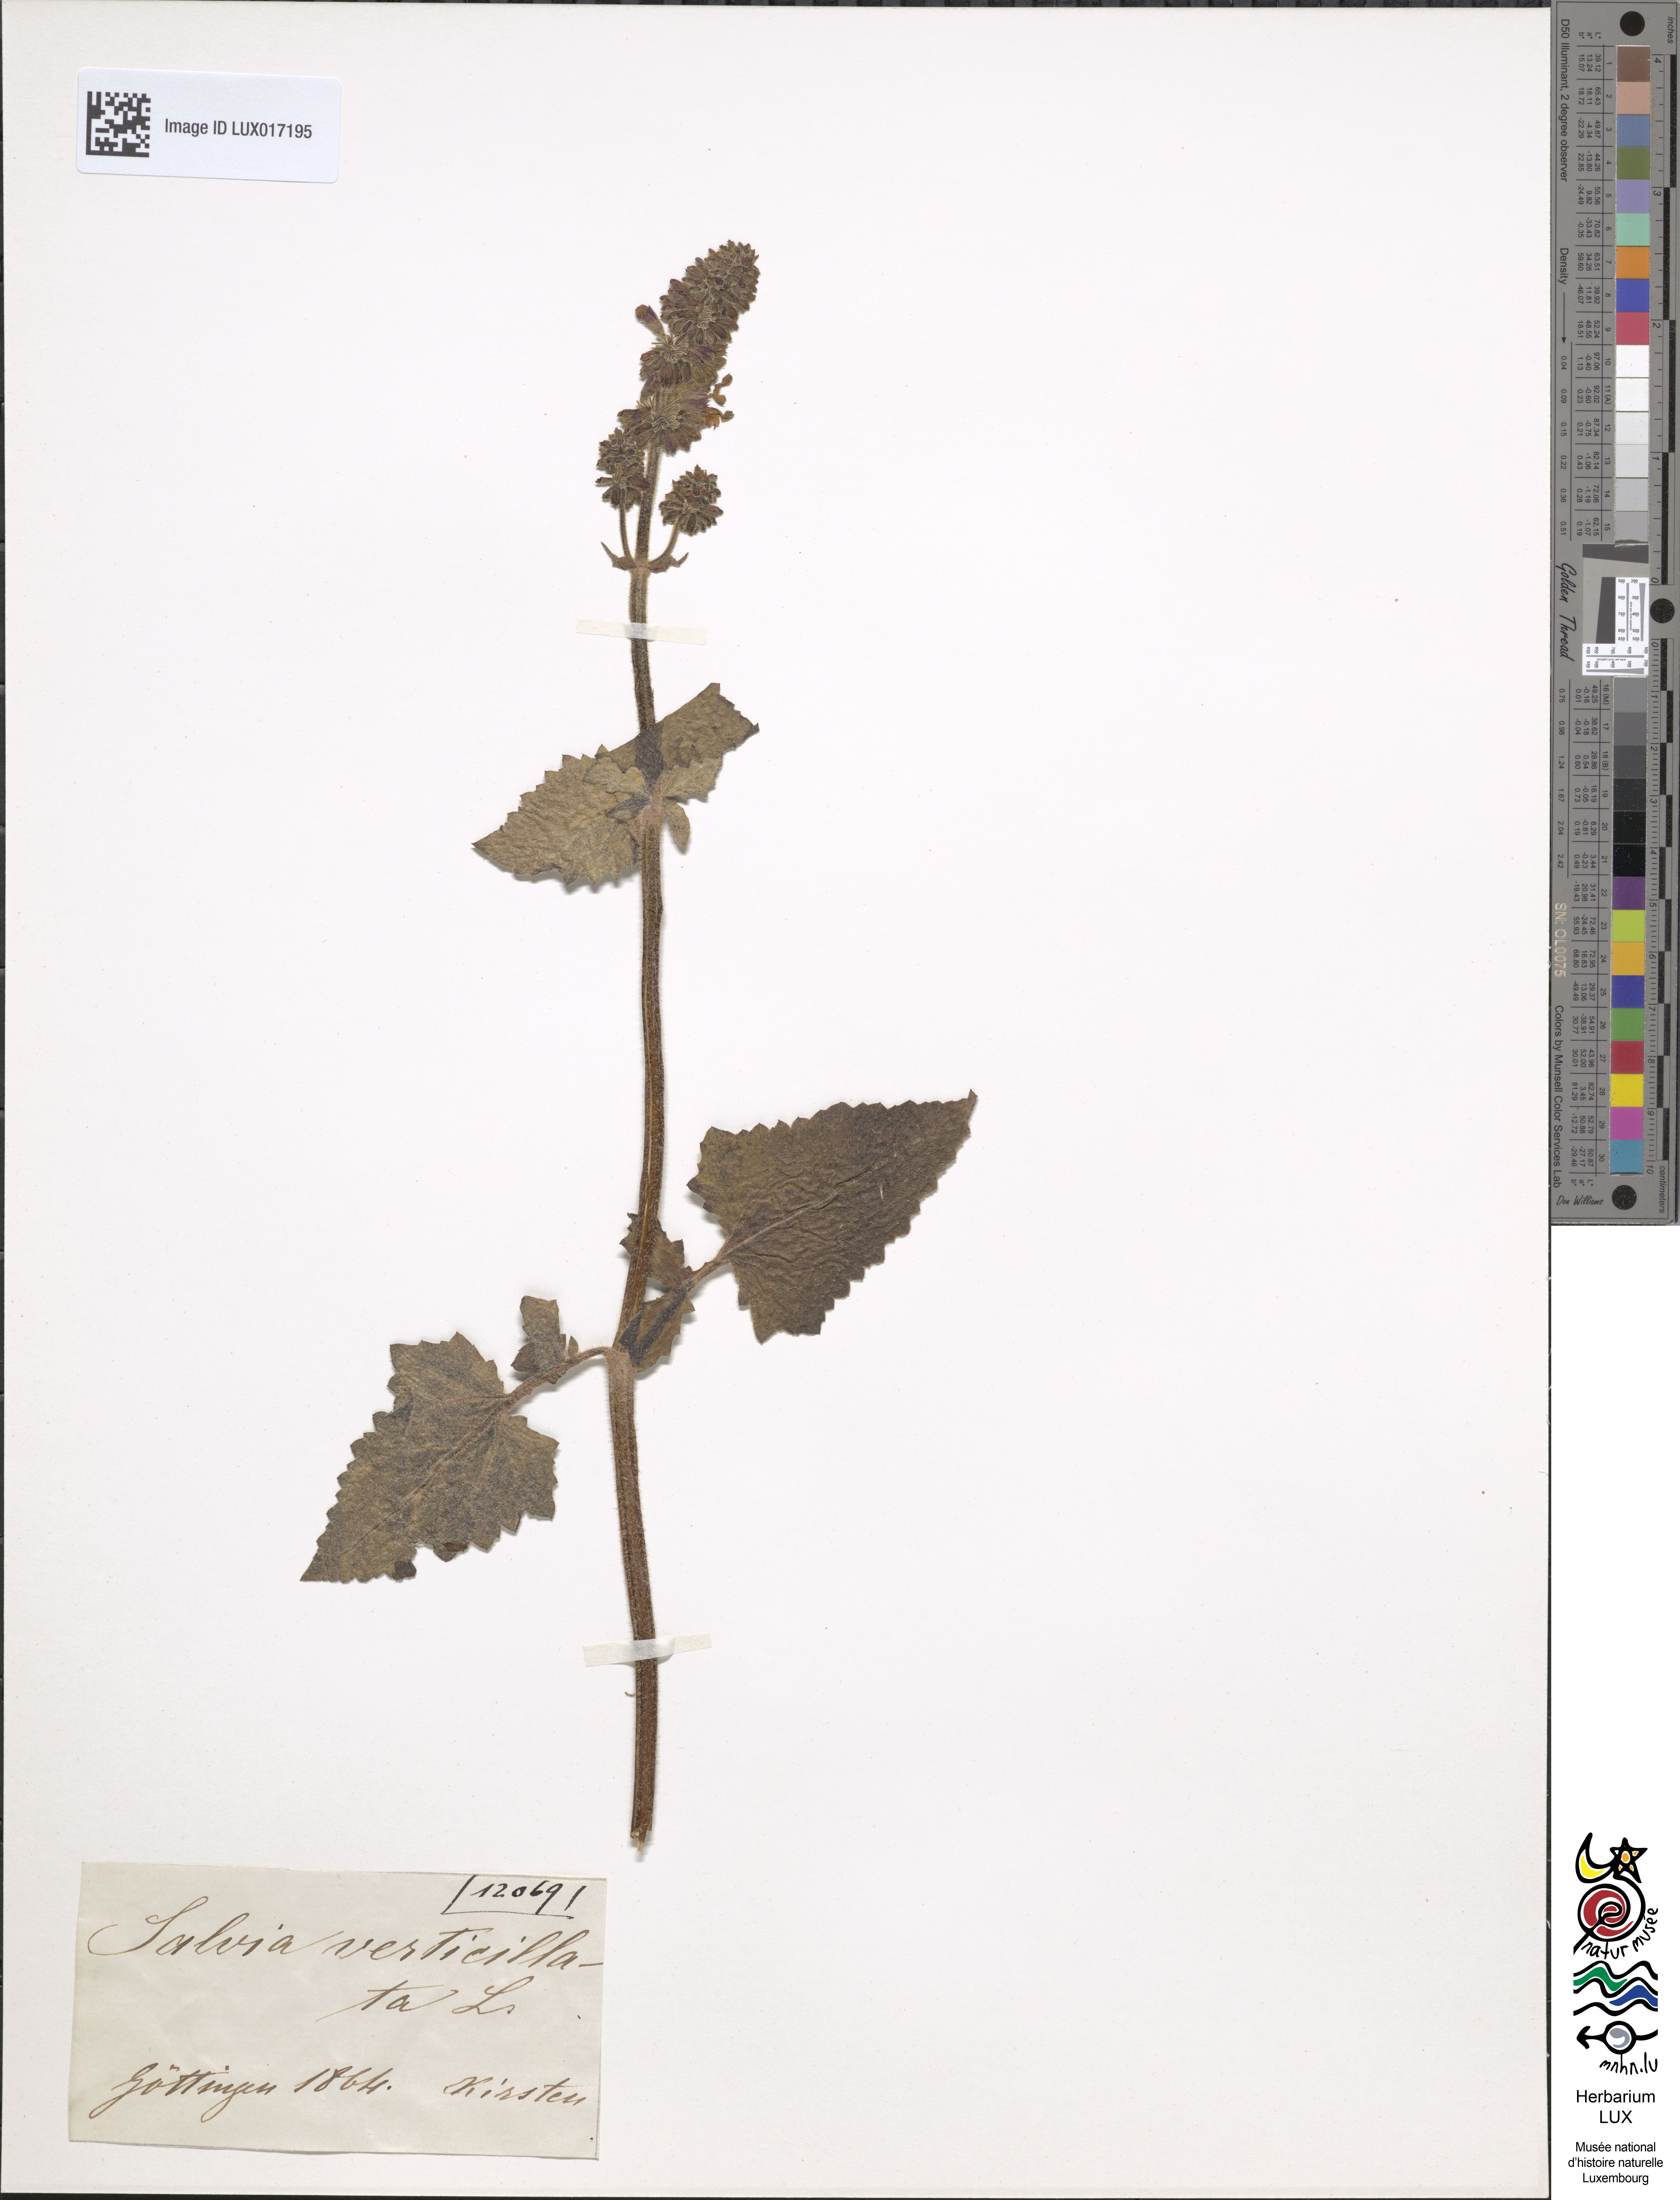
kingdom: Plantae
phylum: Tracheophyta
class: Magnoliopsida
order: Lamiales
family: Lamiaceae
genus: Salvia
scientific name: Salvia verticillata
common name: Whorled clary
